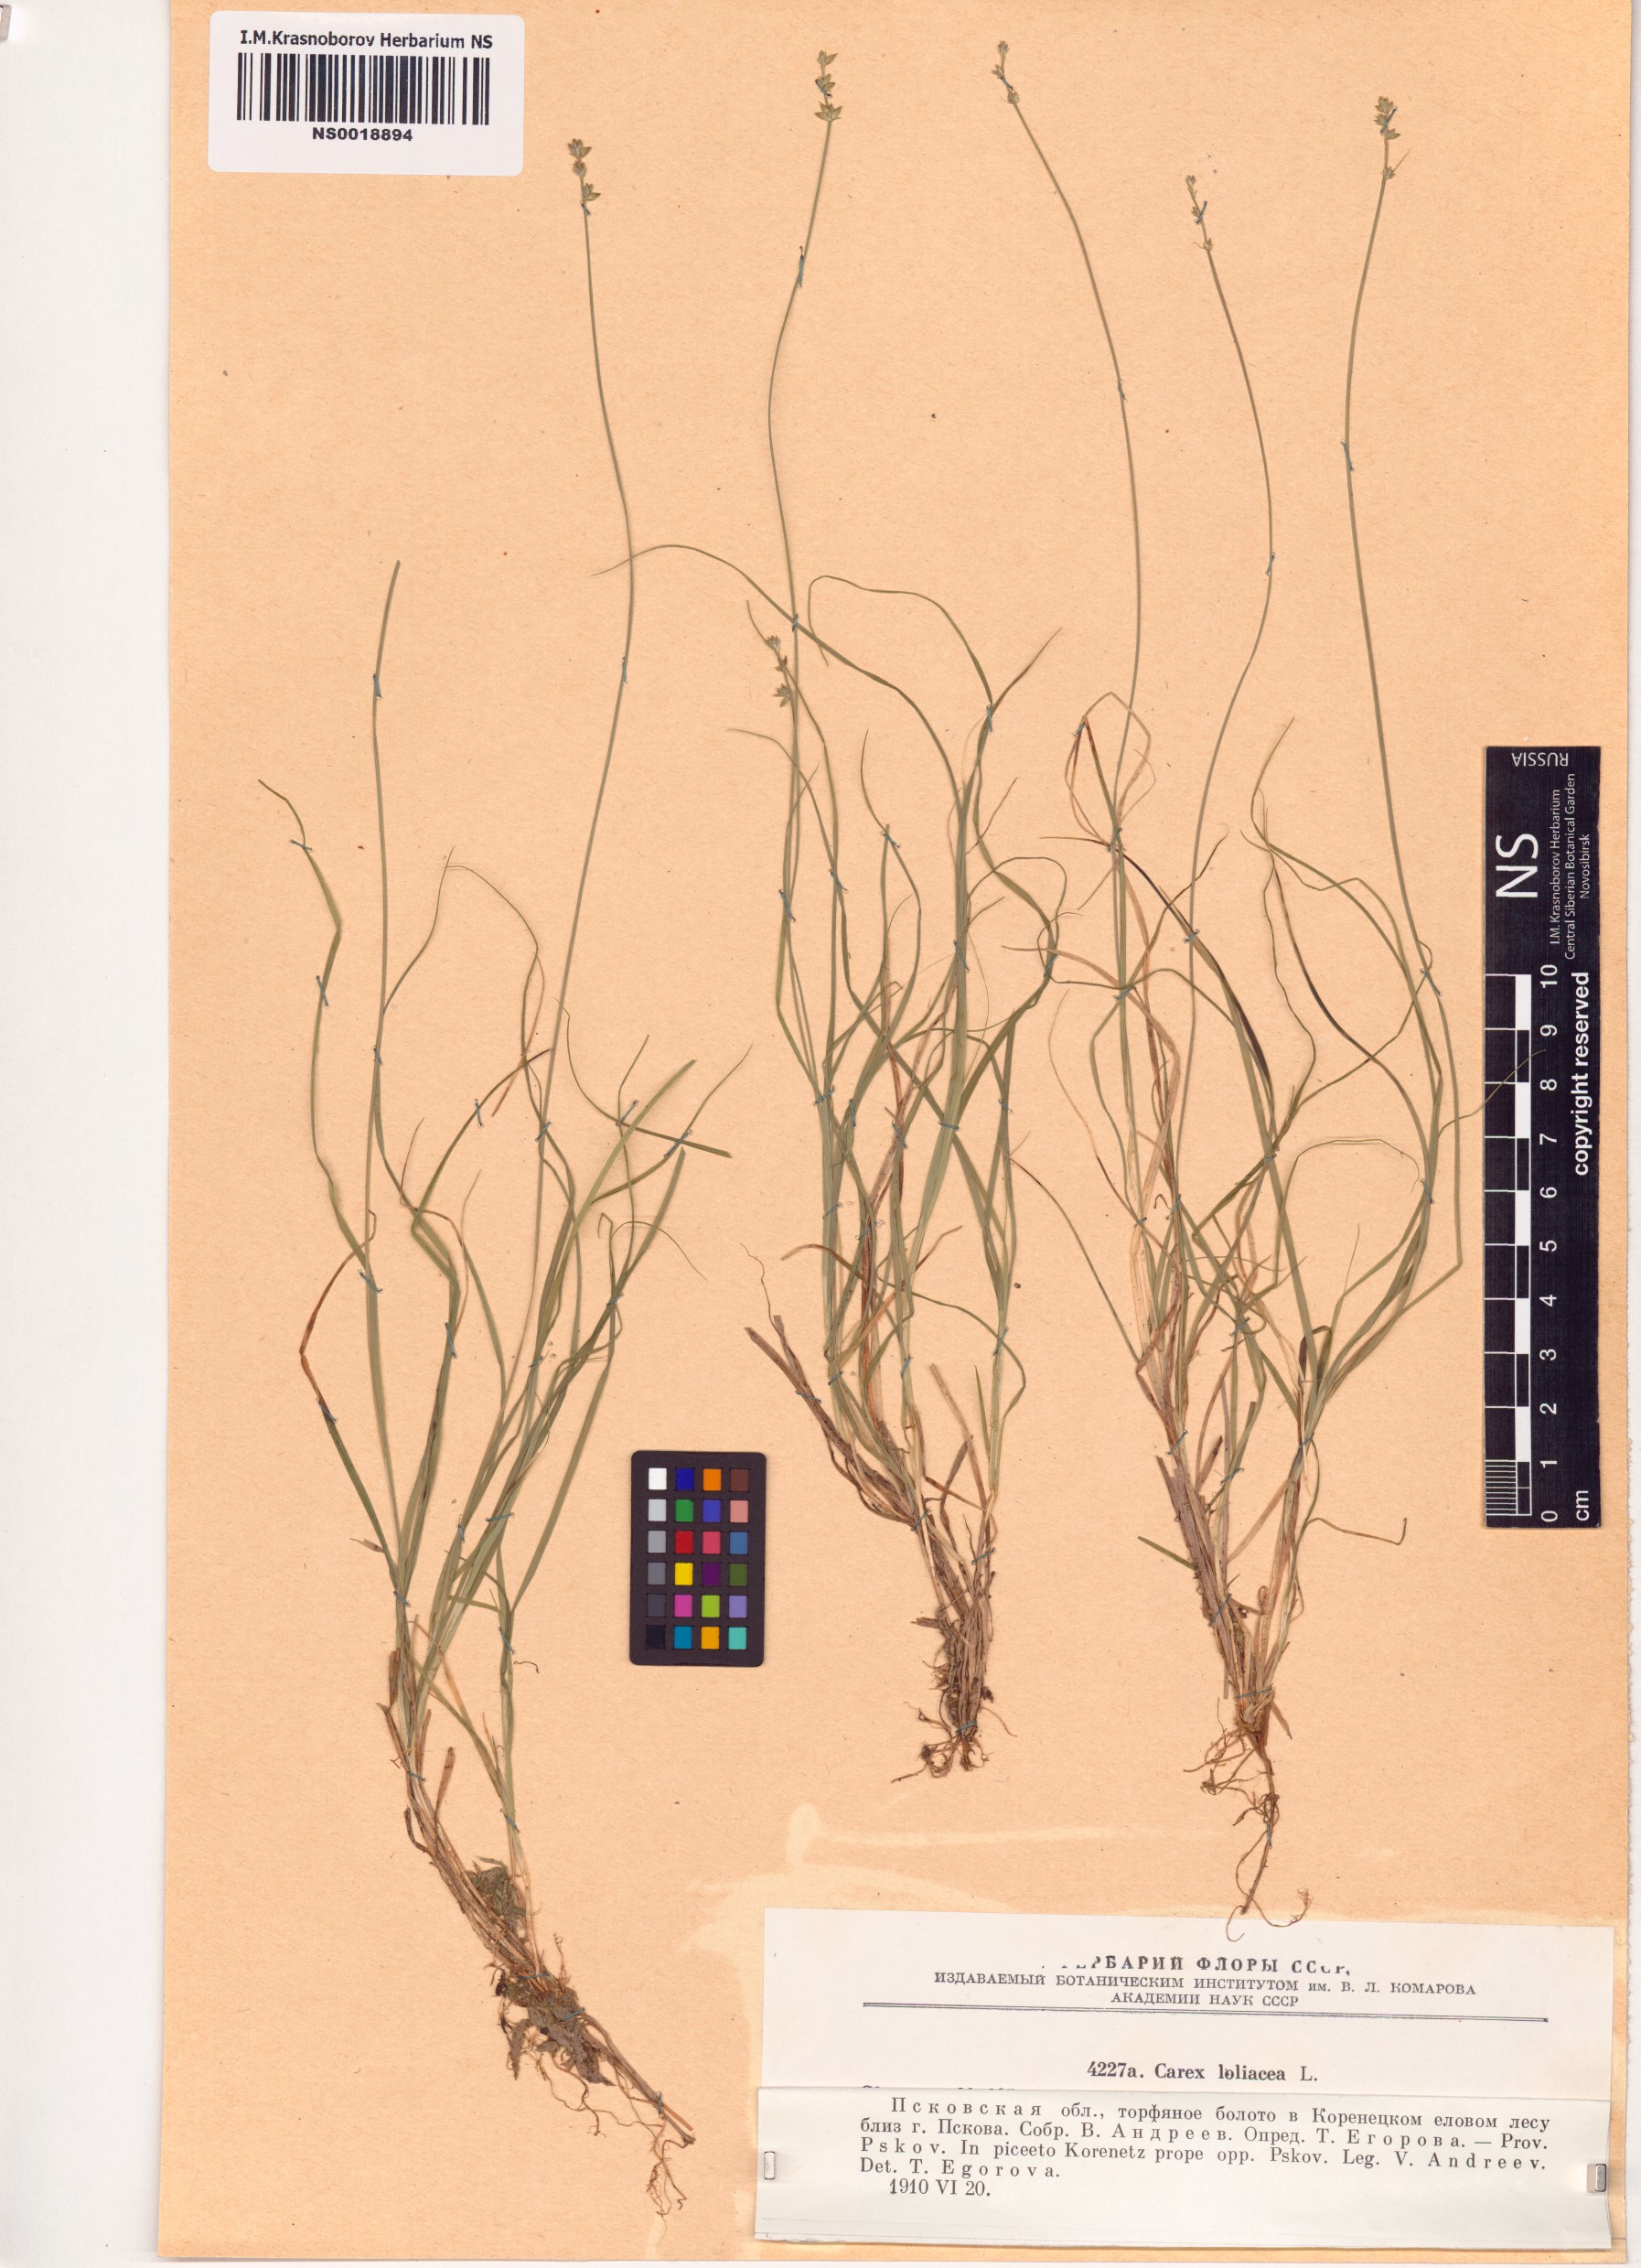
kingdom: Plantae
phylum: Tracheophyta
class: Liliopsida
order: Poales
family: Cyperaceae
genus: Carex
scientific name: Carex loliacea
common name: Ryegrass sedge
